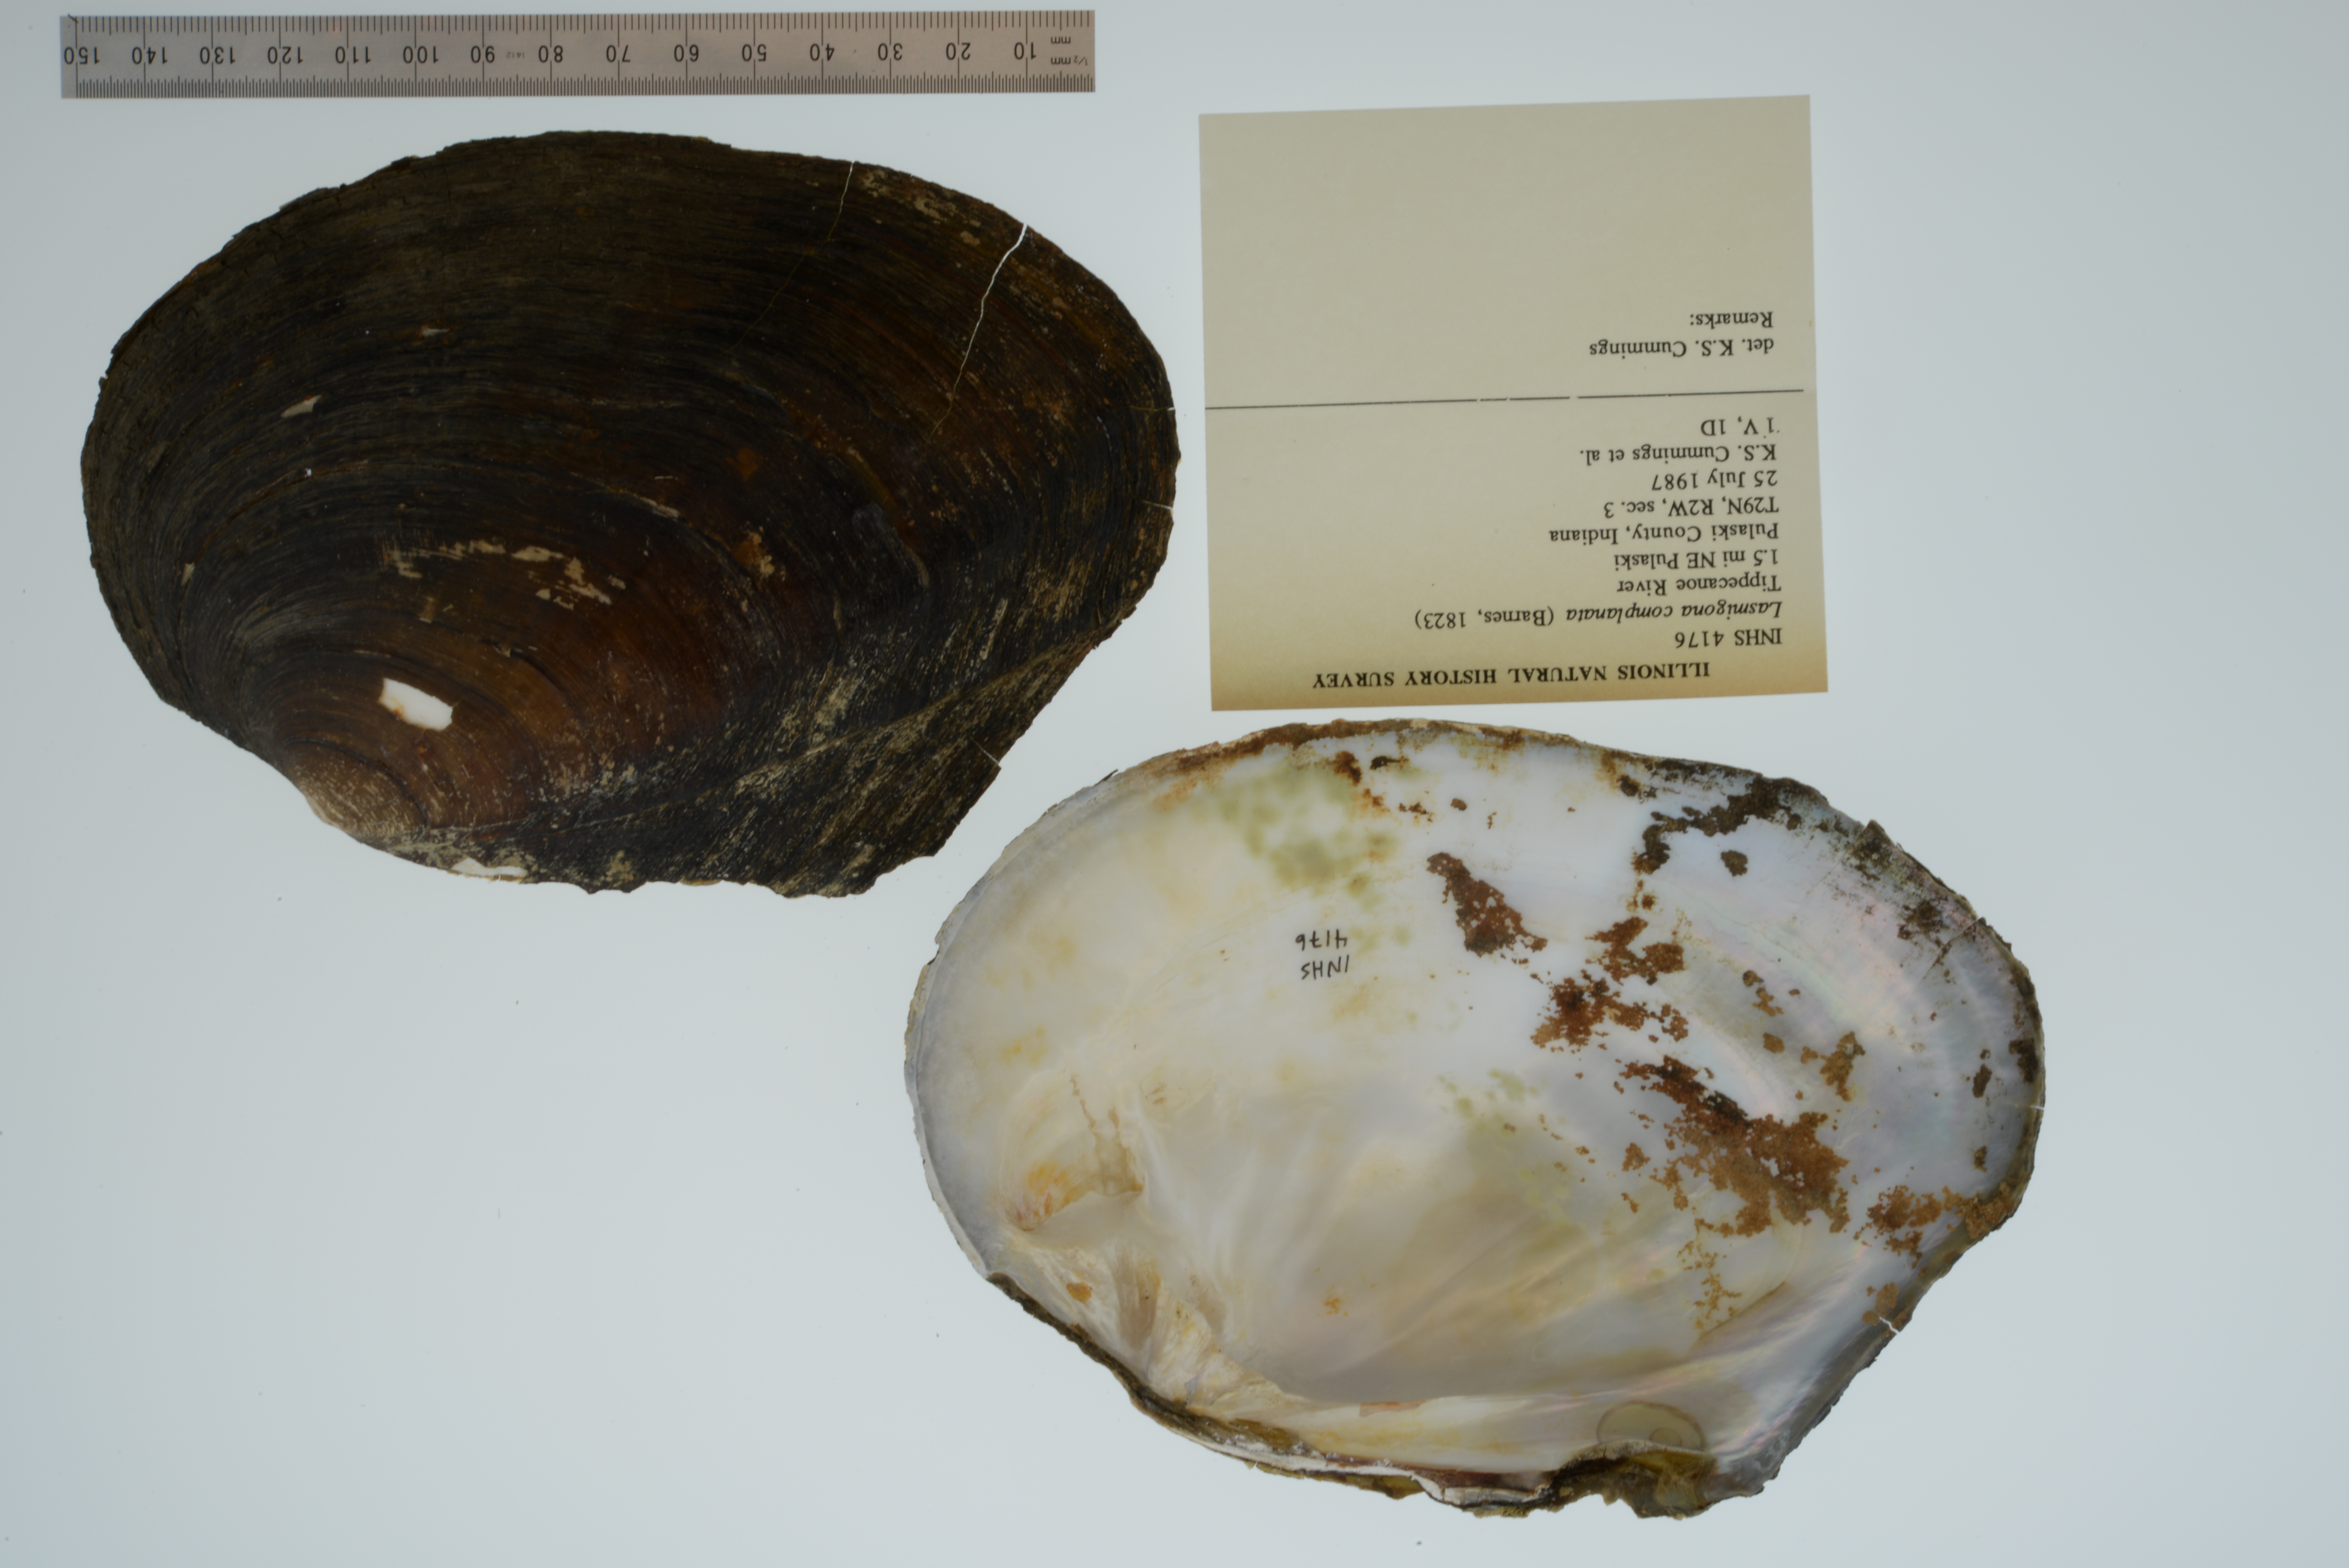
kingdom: Animalia
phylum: Mollusca
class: Bivalvia
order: Unionida
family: Unionidae
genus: Lasmigona
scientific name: Lasmigona complanata
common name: White heelsplitter
